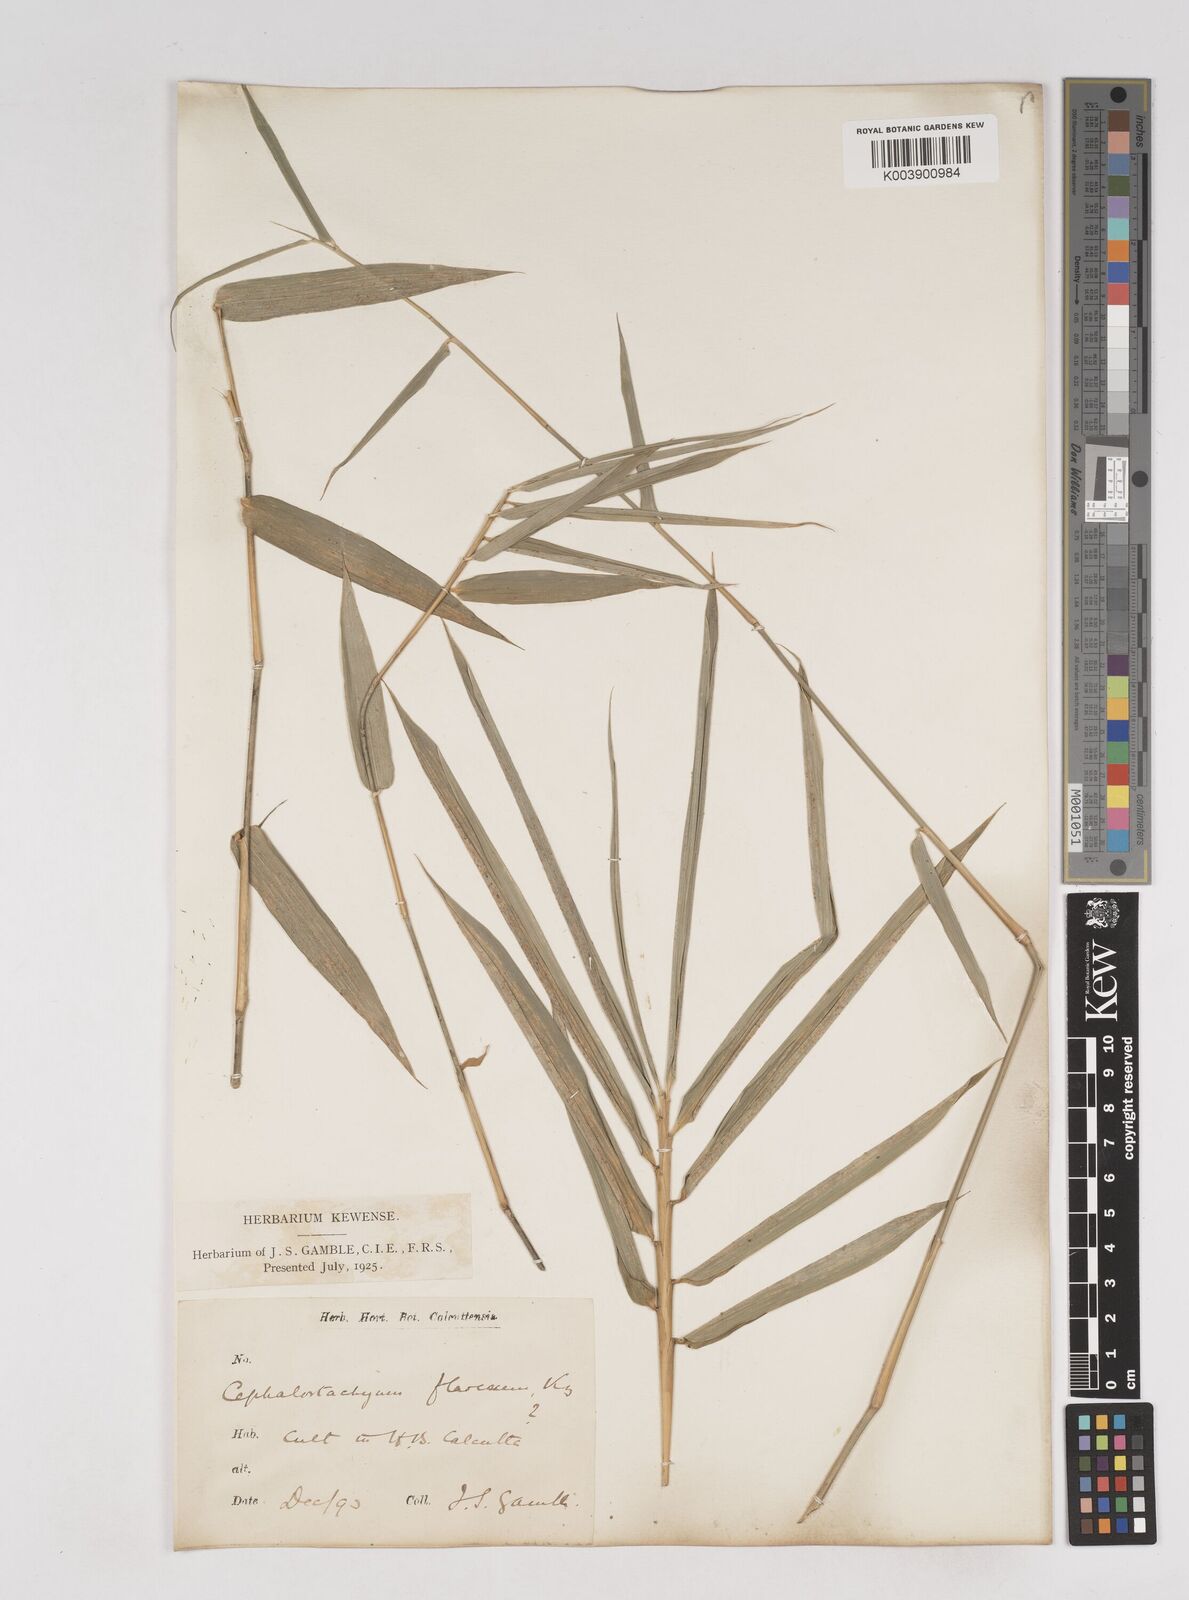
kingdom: Plantae
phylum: Tracheophyta
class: Liliopsida
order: Poales
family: Poaceae
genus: Cephalostachyum
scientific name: Cephalostachyum flavescens
